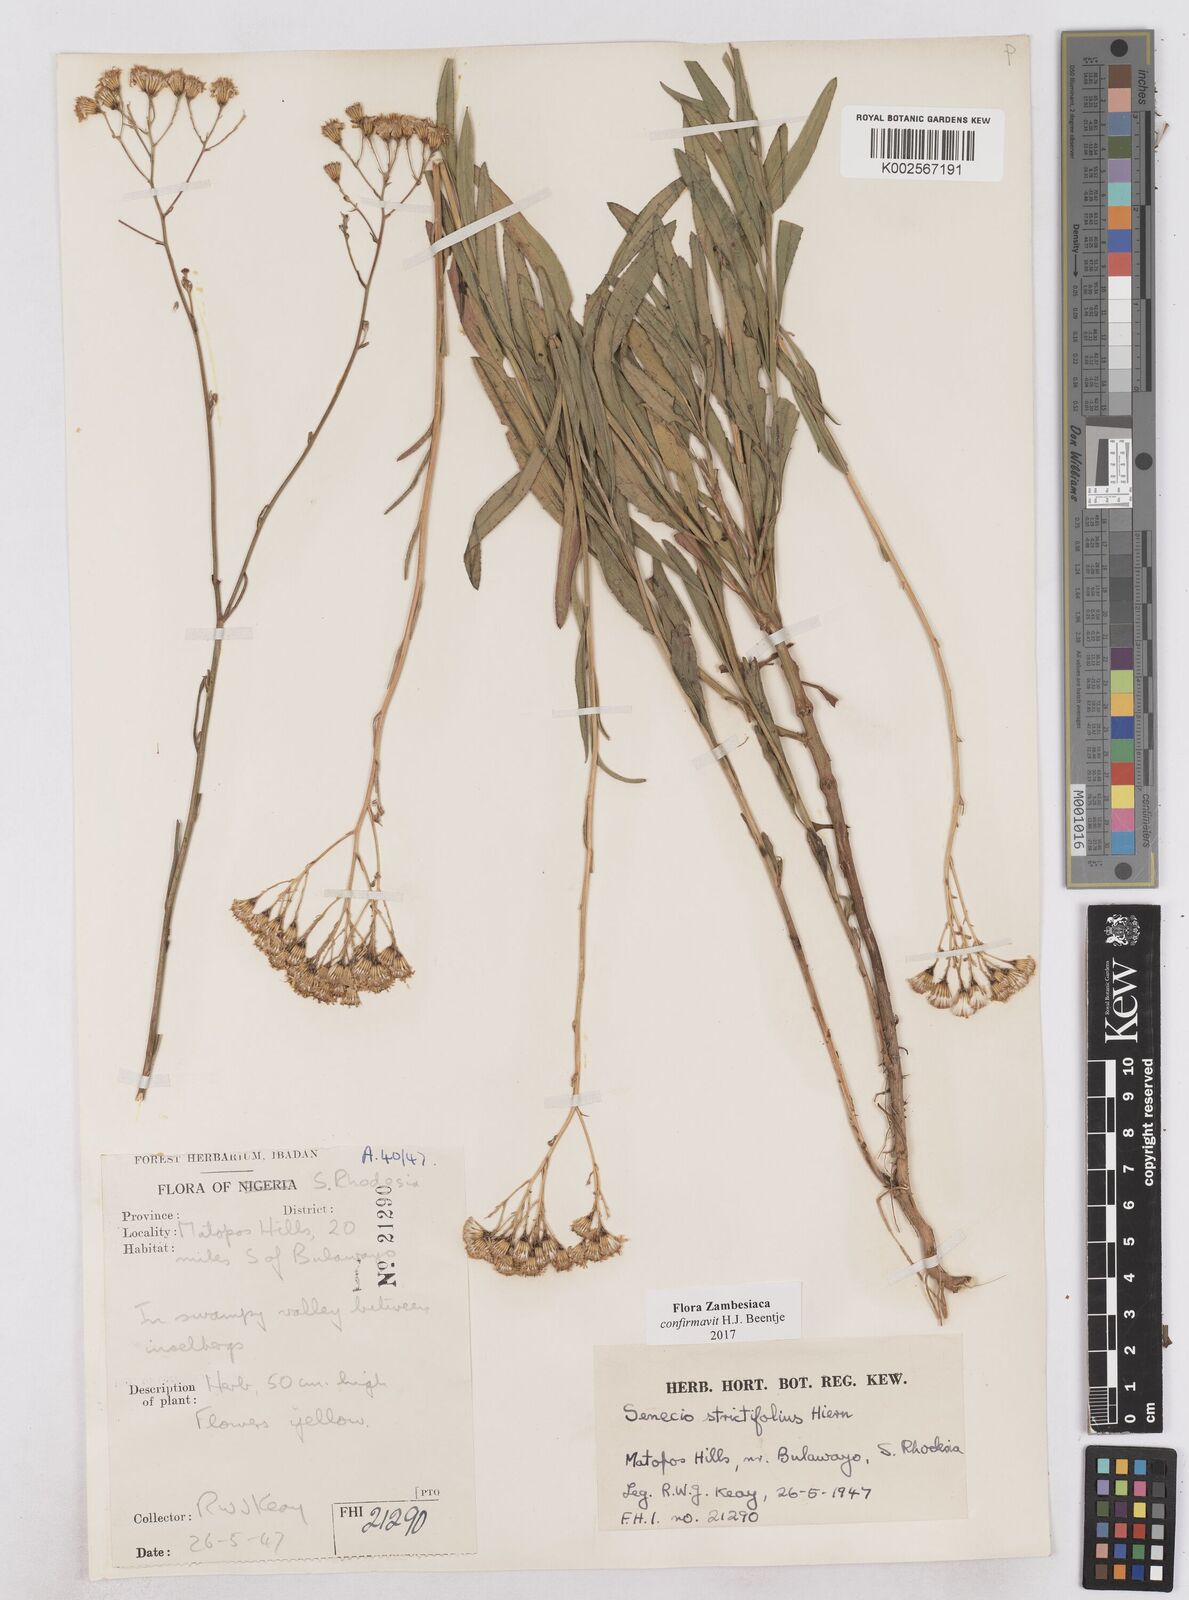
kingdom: Plantae
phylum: Tracheophyta
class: Magnoliopsida
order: Asterales
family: Asteraceae
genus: Senecio
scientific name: Senecio strictifolius
